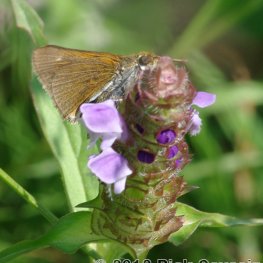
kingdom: Animalia
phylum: Arthropoda
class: Insecta
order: Lepidoptera
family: Hesperiidae
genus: Euphyes
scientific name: Euphyes bimacula
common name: Two-spotted Skipper
